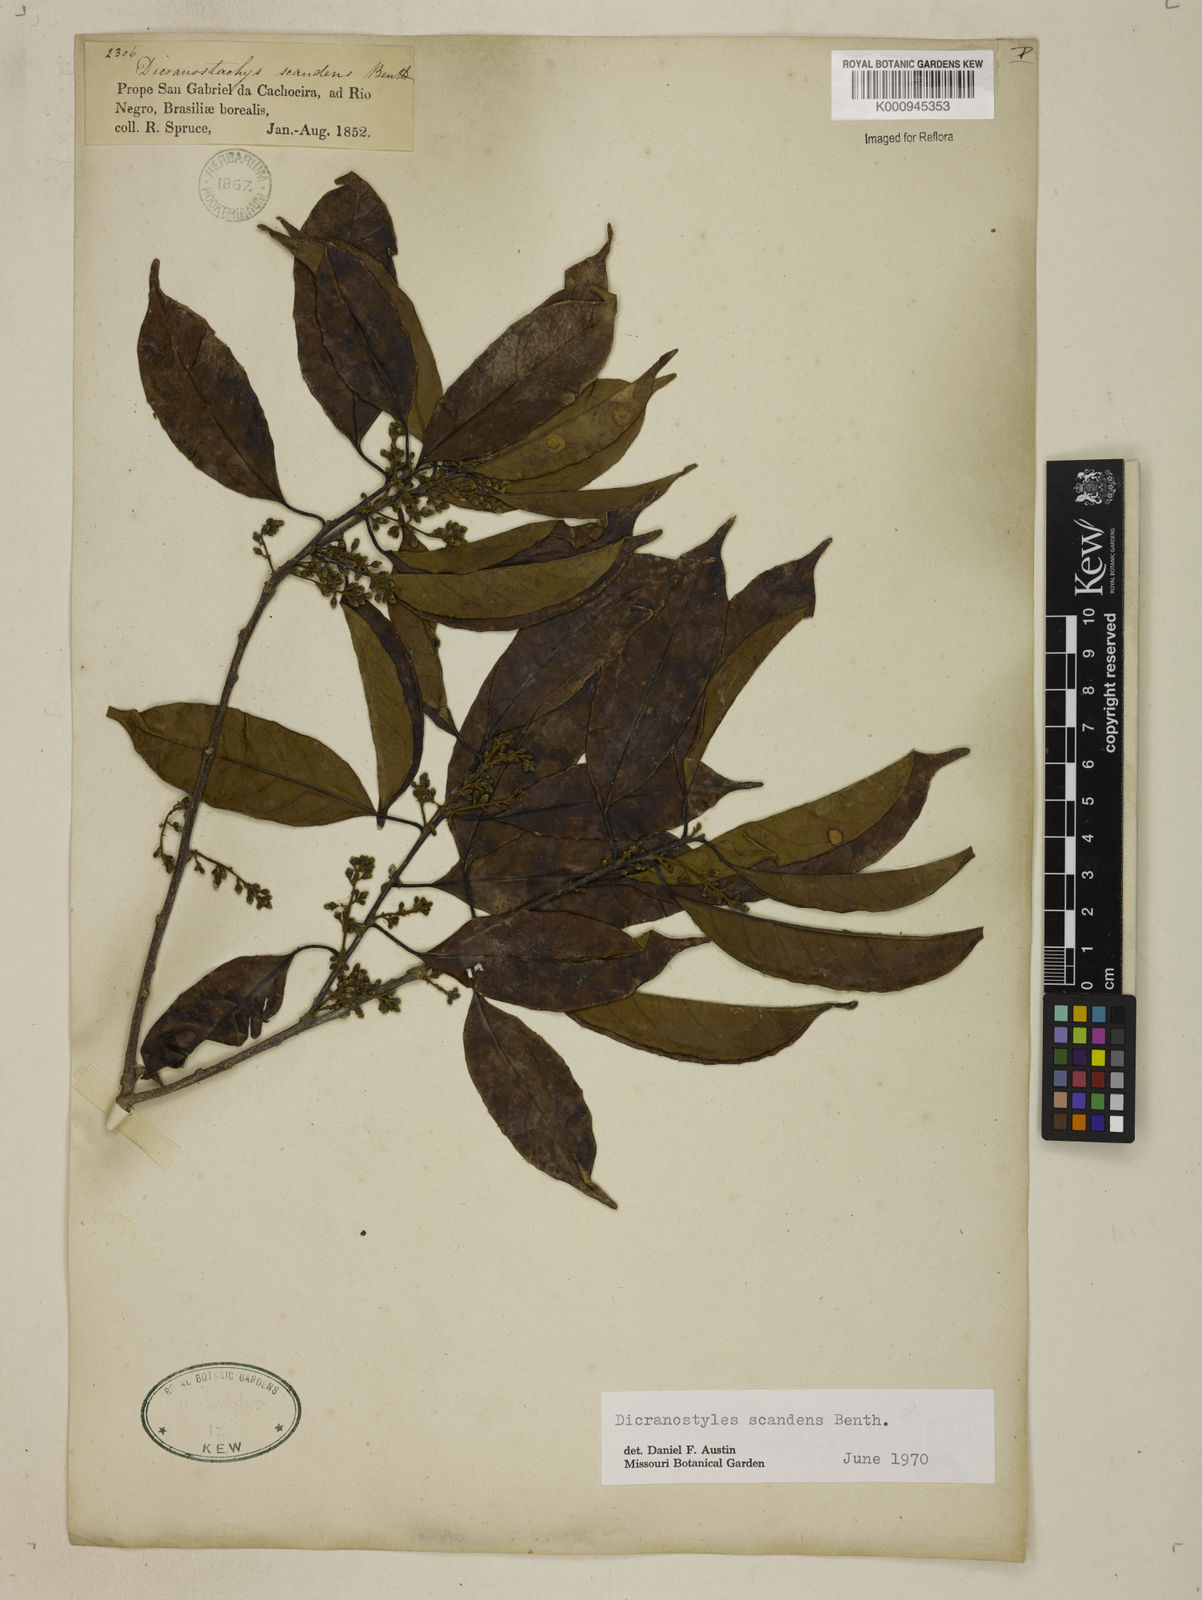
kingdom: Plantae
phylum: Tracheophyta
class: Magnoliopsida
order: Solanales
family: Convolvulaceae
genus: Dicranostyles
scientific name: Dicranostyles scandens
